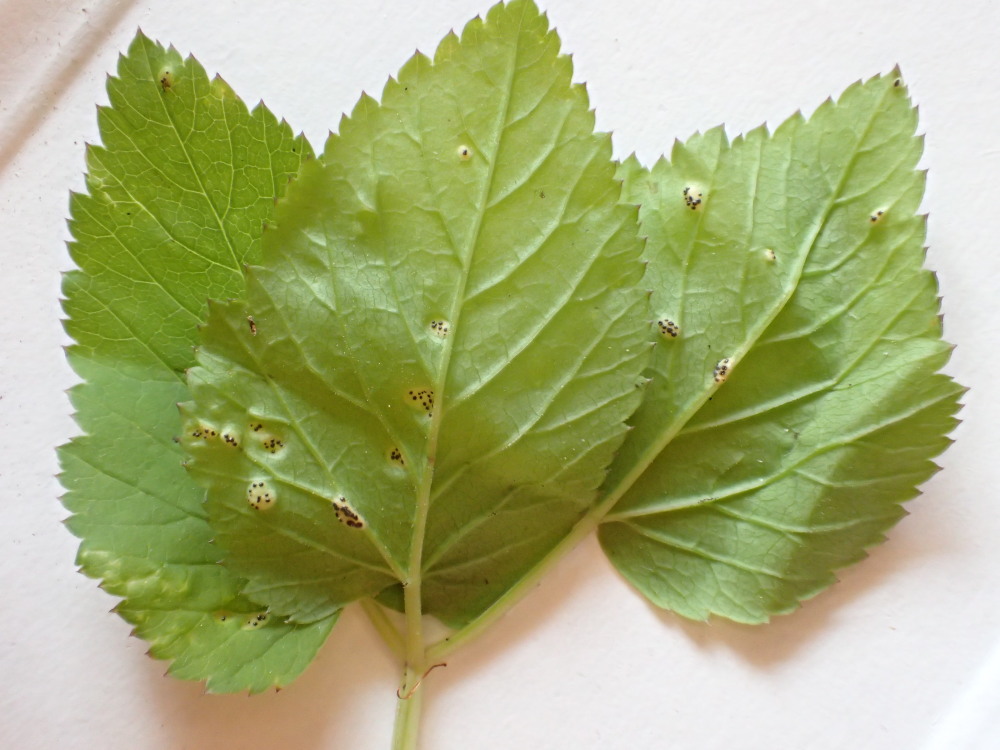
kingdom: Fungi
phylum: Basidiomycota
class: Pucciniomycetes
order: Pucciniales
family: Pucciniaceae
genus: Puccinia
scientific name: Puccinia
